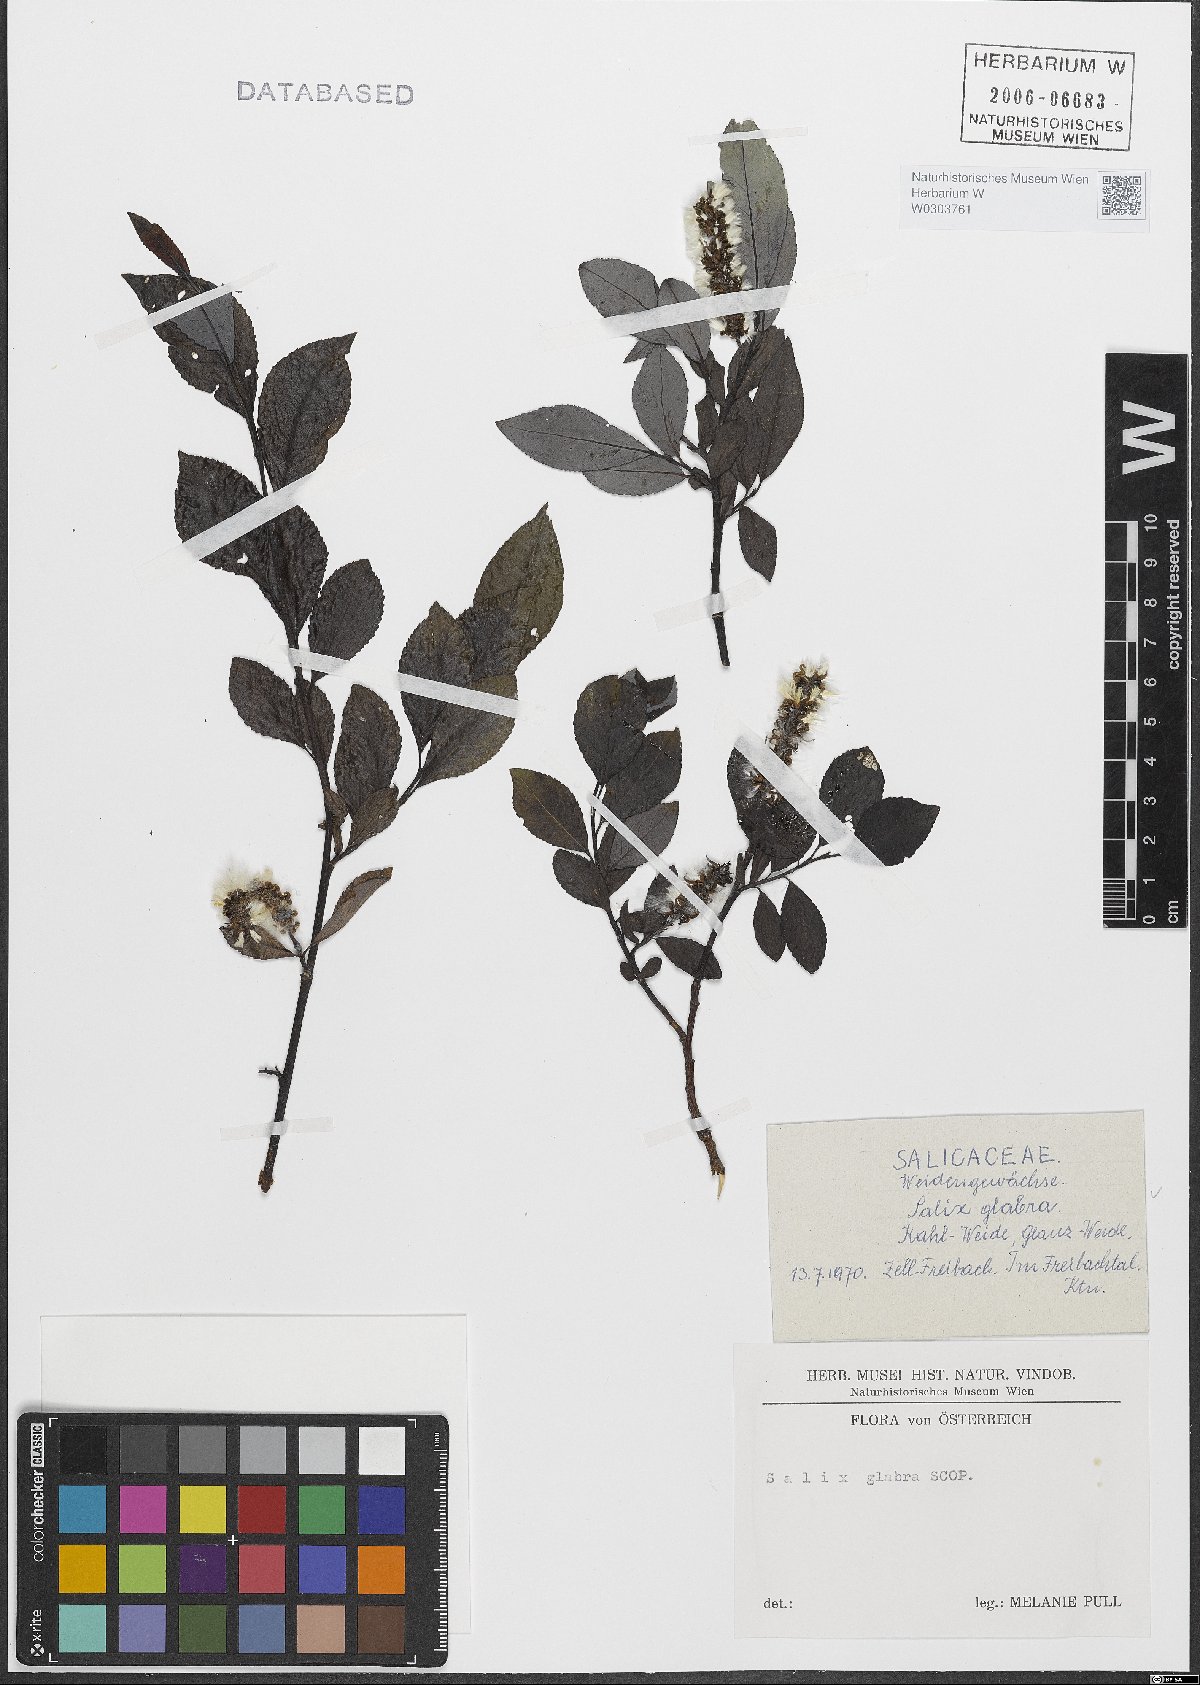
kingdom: Plantae
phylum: Tracheophyta
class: Magnoliopsida
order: Malpighiales
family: Salicaceae
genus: Salix
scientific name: Salix glabra
